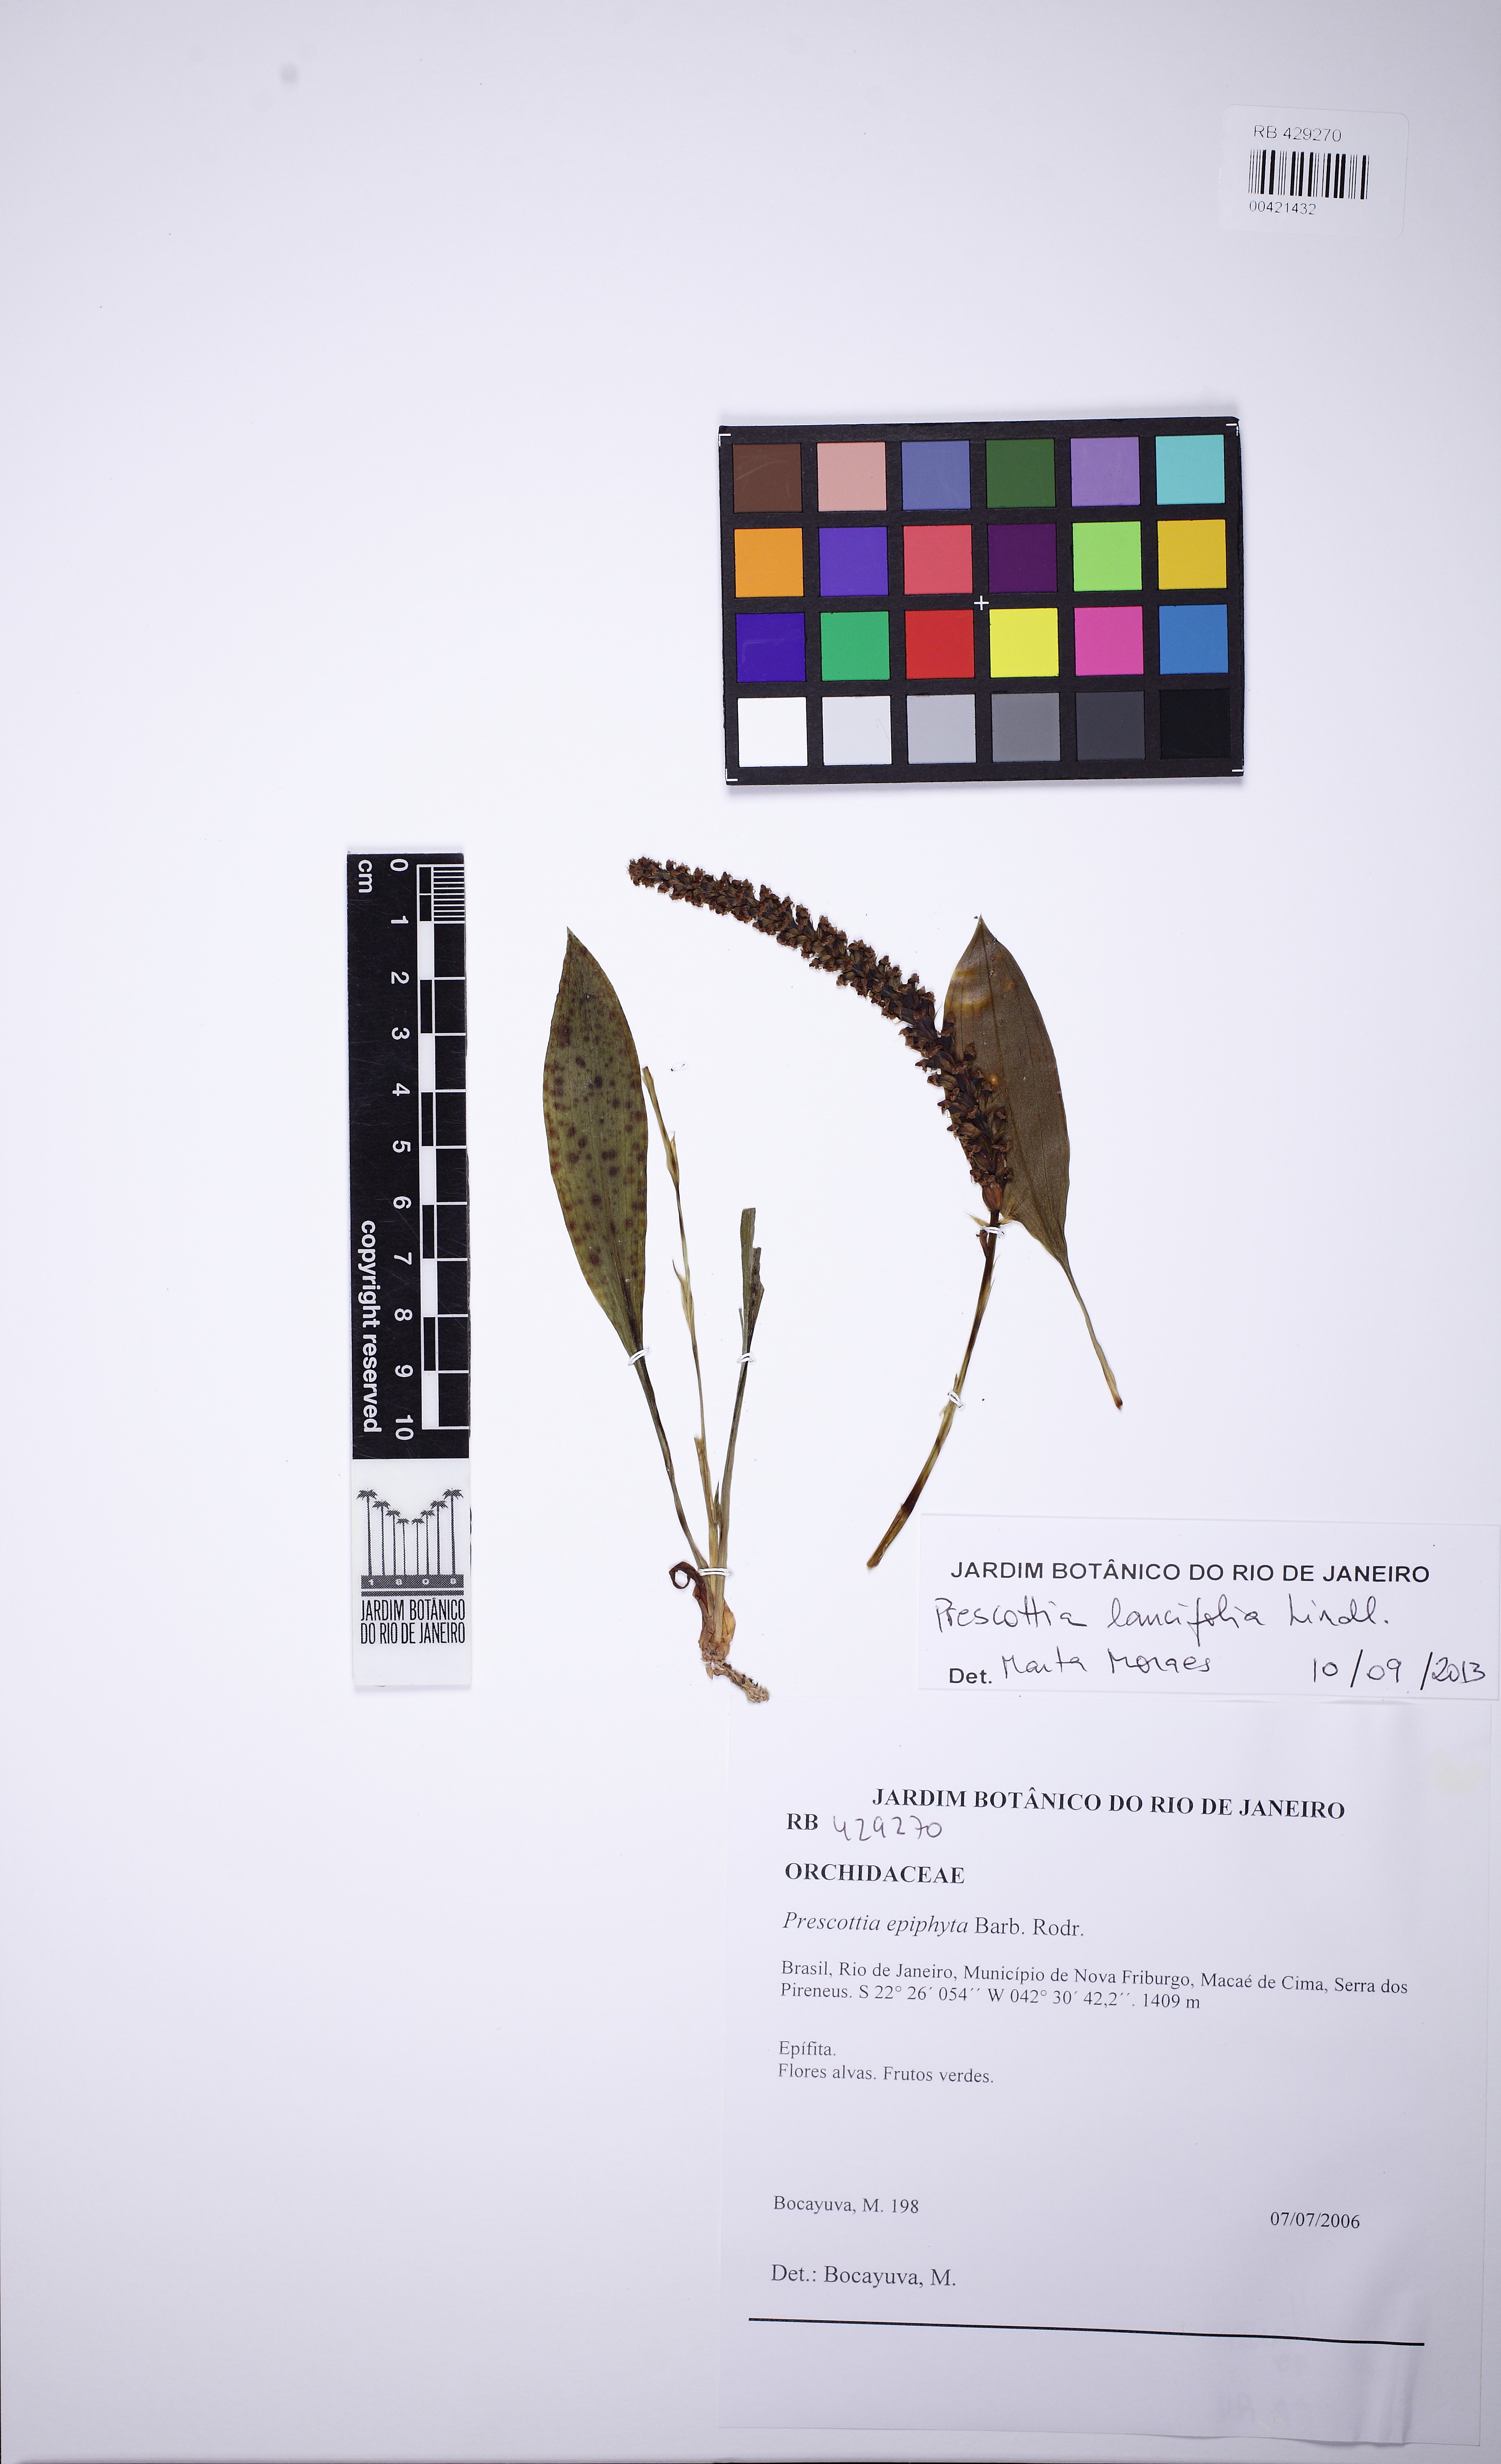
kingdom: Plantae
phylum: Tracheophyta
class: Liliopsida
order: Asparagales
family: Orchidaceae
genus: Prescottia
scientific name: Prescottia lancifolia
